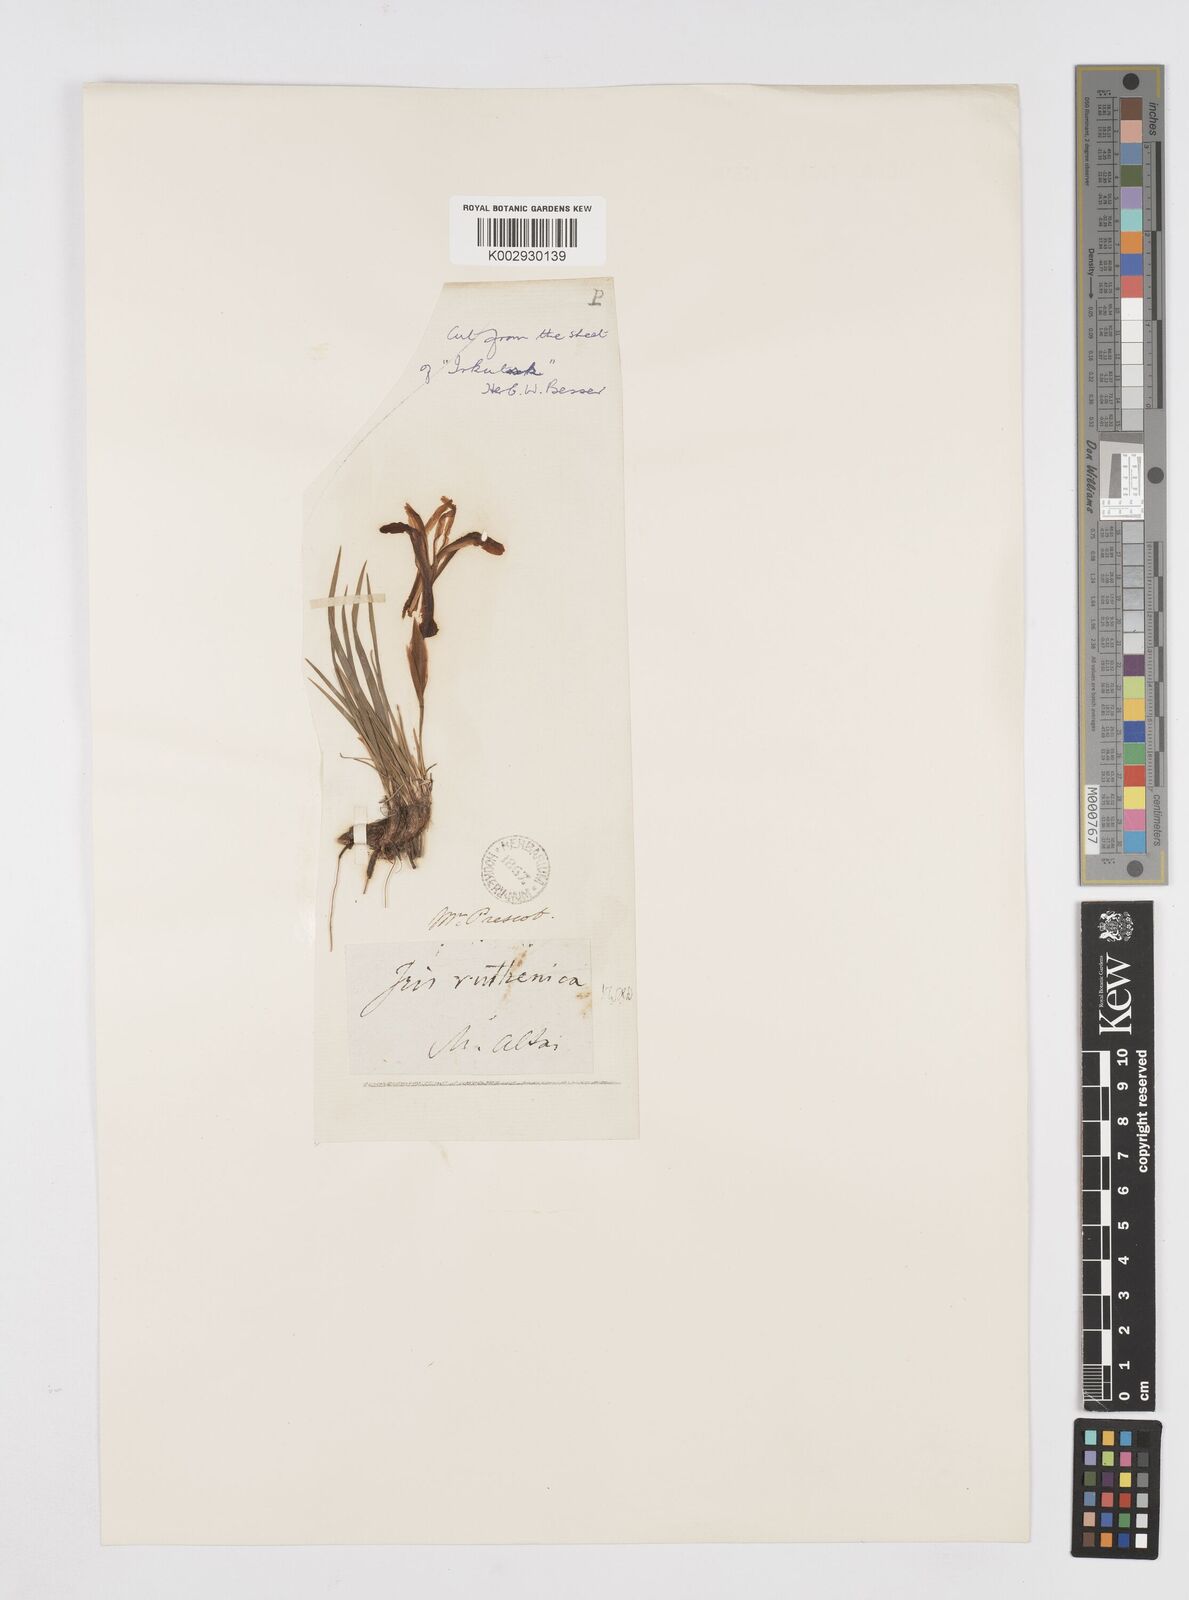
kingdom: Plantae
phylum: Tracheophyta
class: Liliopsida
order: Asparagales
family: Iridaceae
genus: Iris
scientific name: Iris ruthenica
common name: Purple-bract iris
